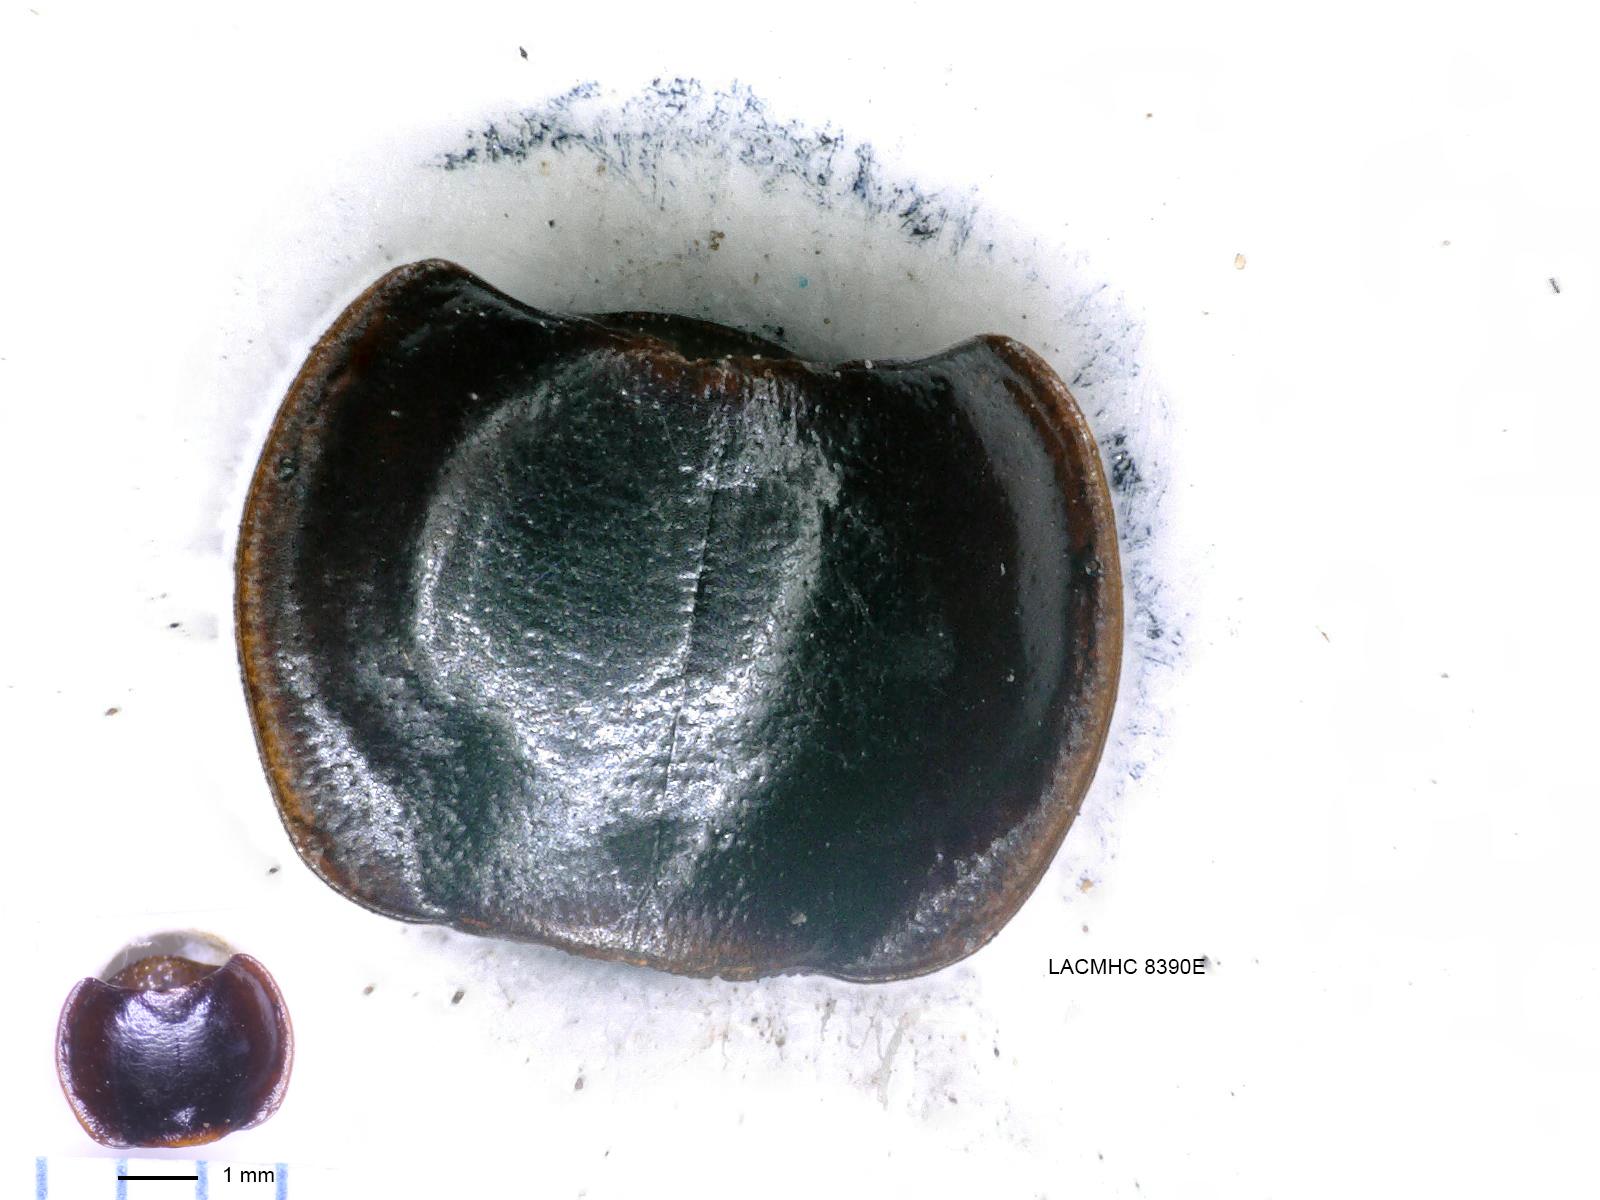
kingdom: Animalia
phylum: Arthropoda
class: Insecta
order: Coleoptera
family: Carabidae
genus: Tanystoma
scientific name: Tanystoma maculicolle
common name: Tule beetle
